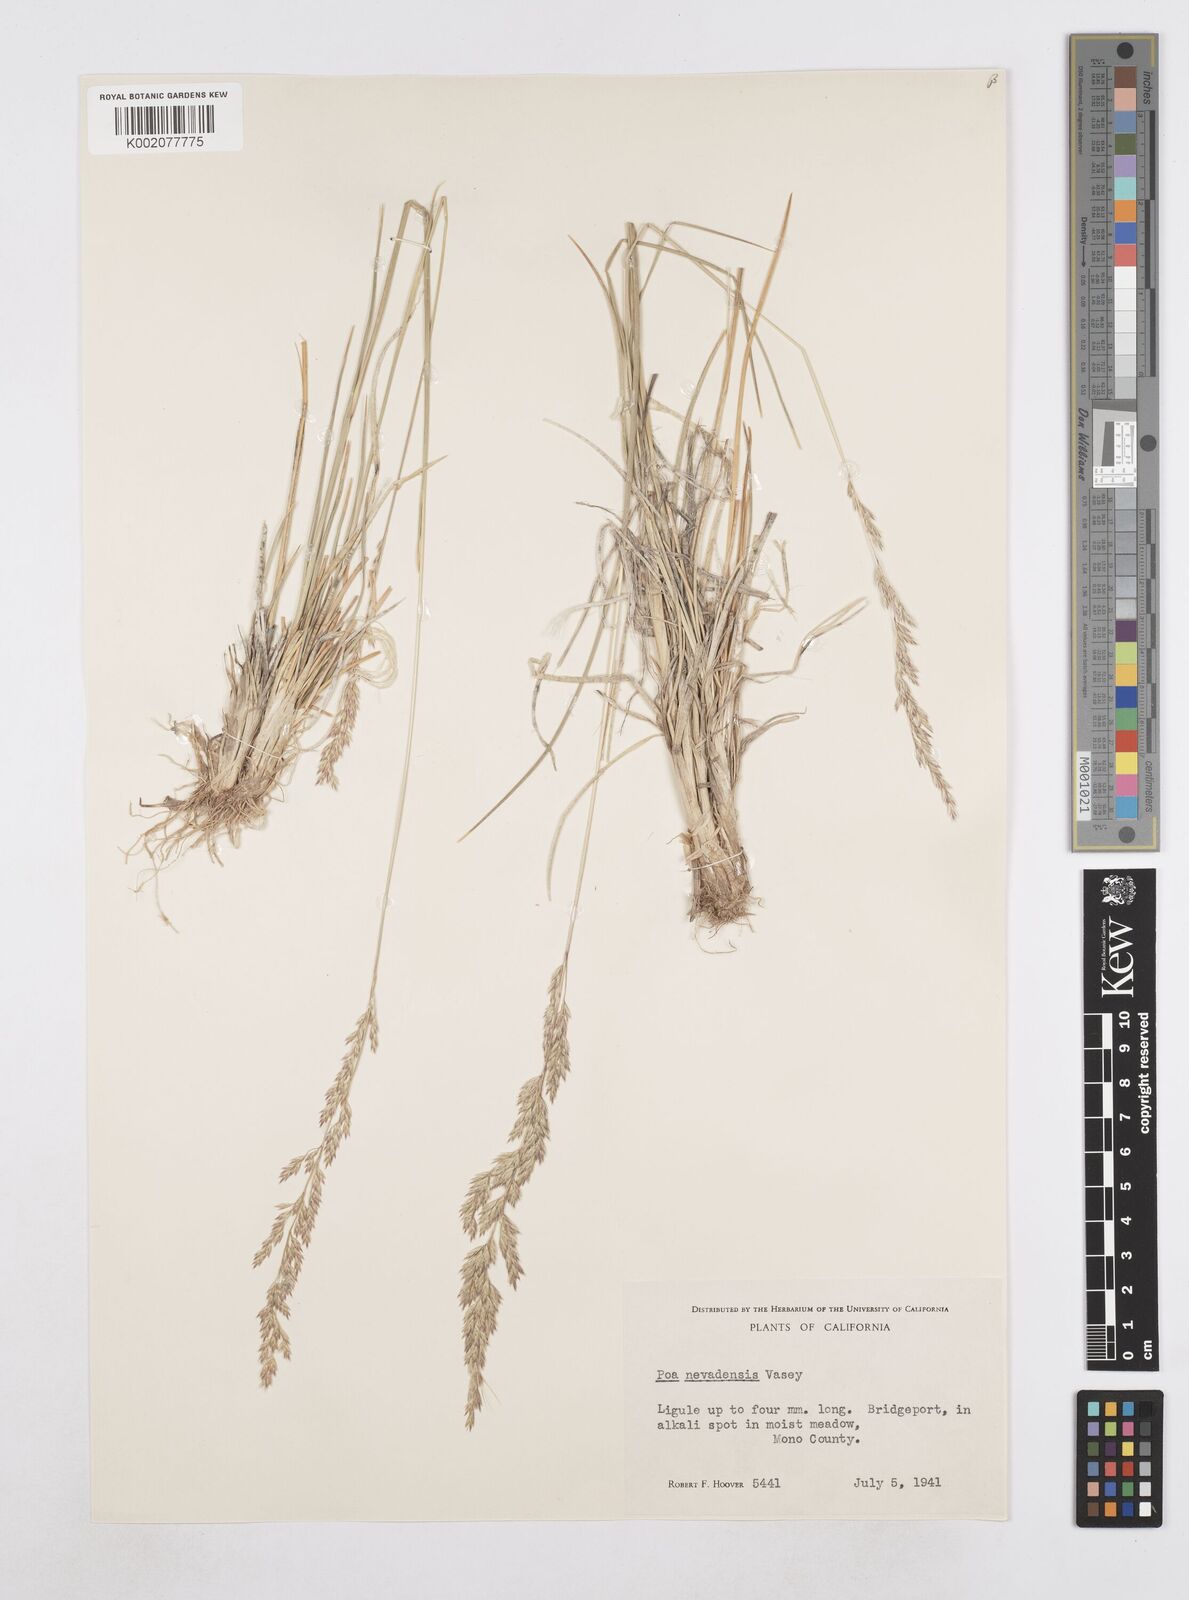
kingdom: Plantae
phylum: Tracheophyta
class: Liliopsida
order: Poales
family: Poaceae
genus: Poa
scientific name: Poa secunda
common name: Sandberg bluegrass
